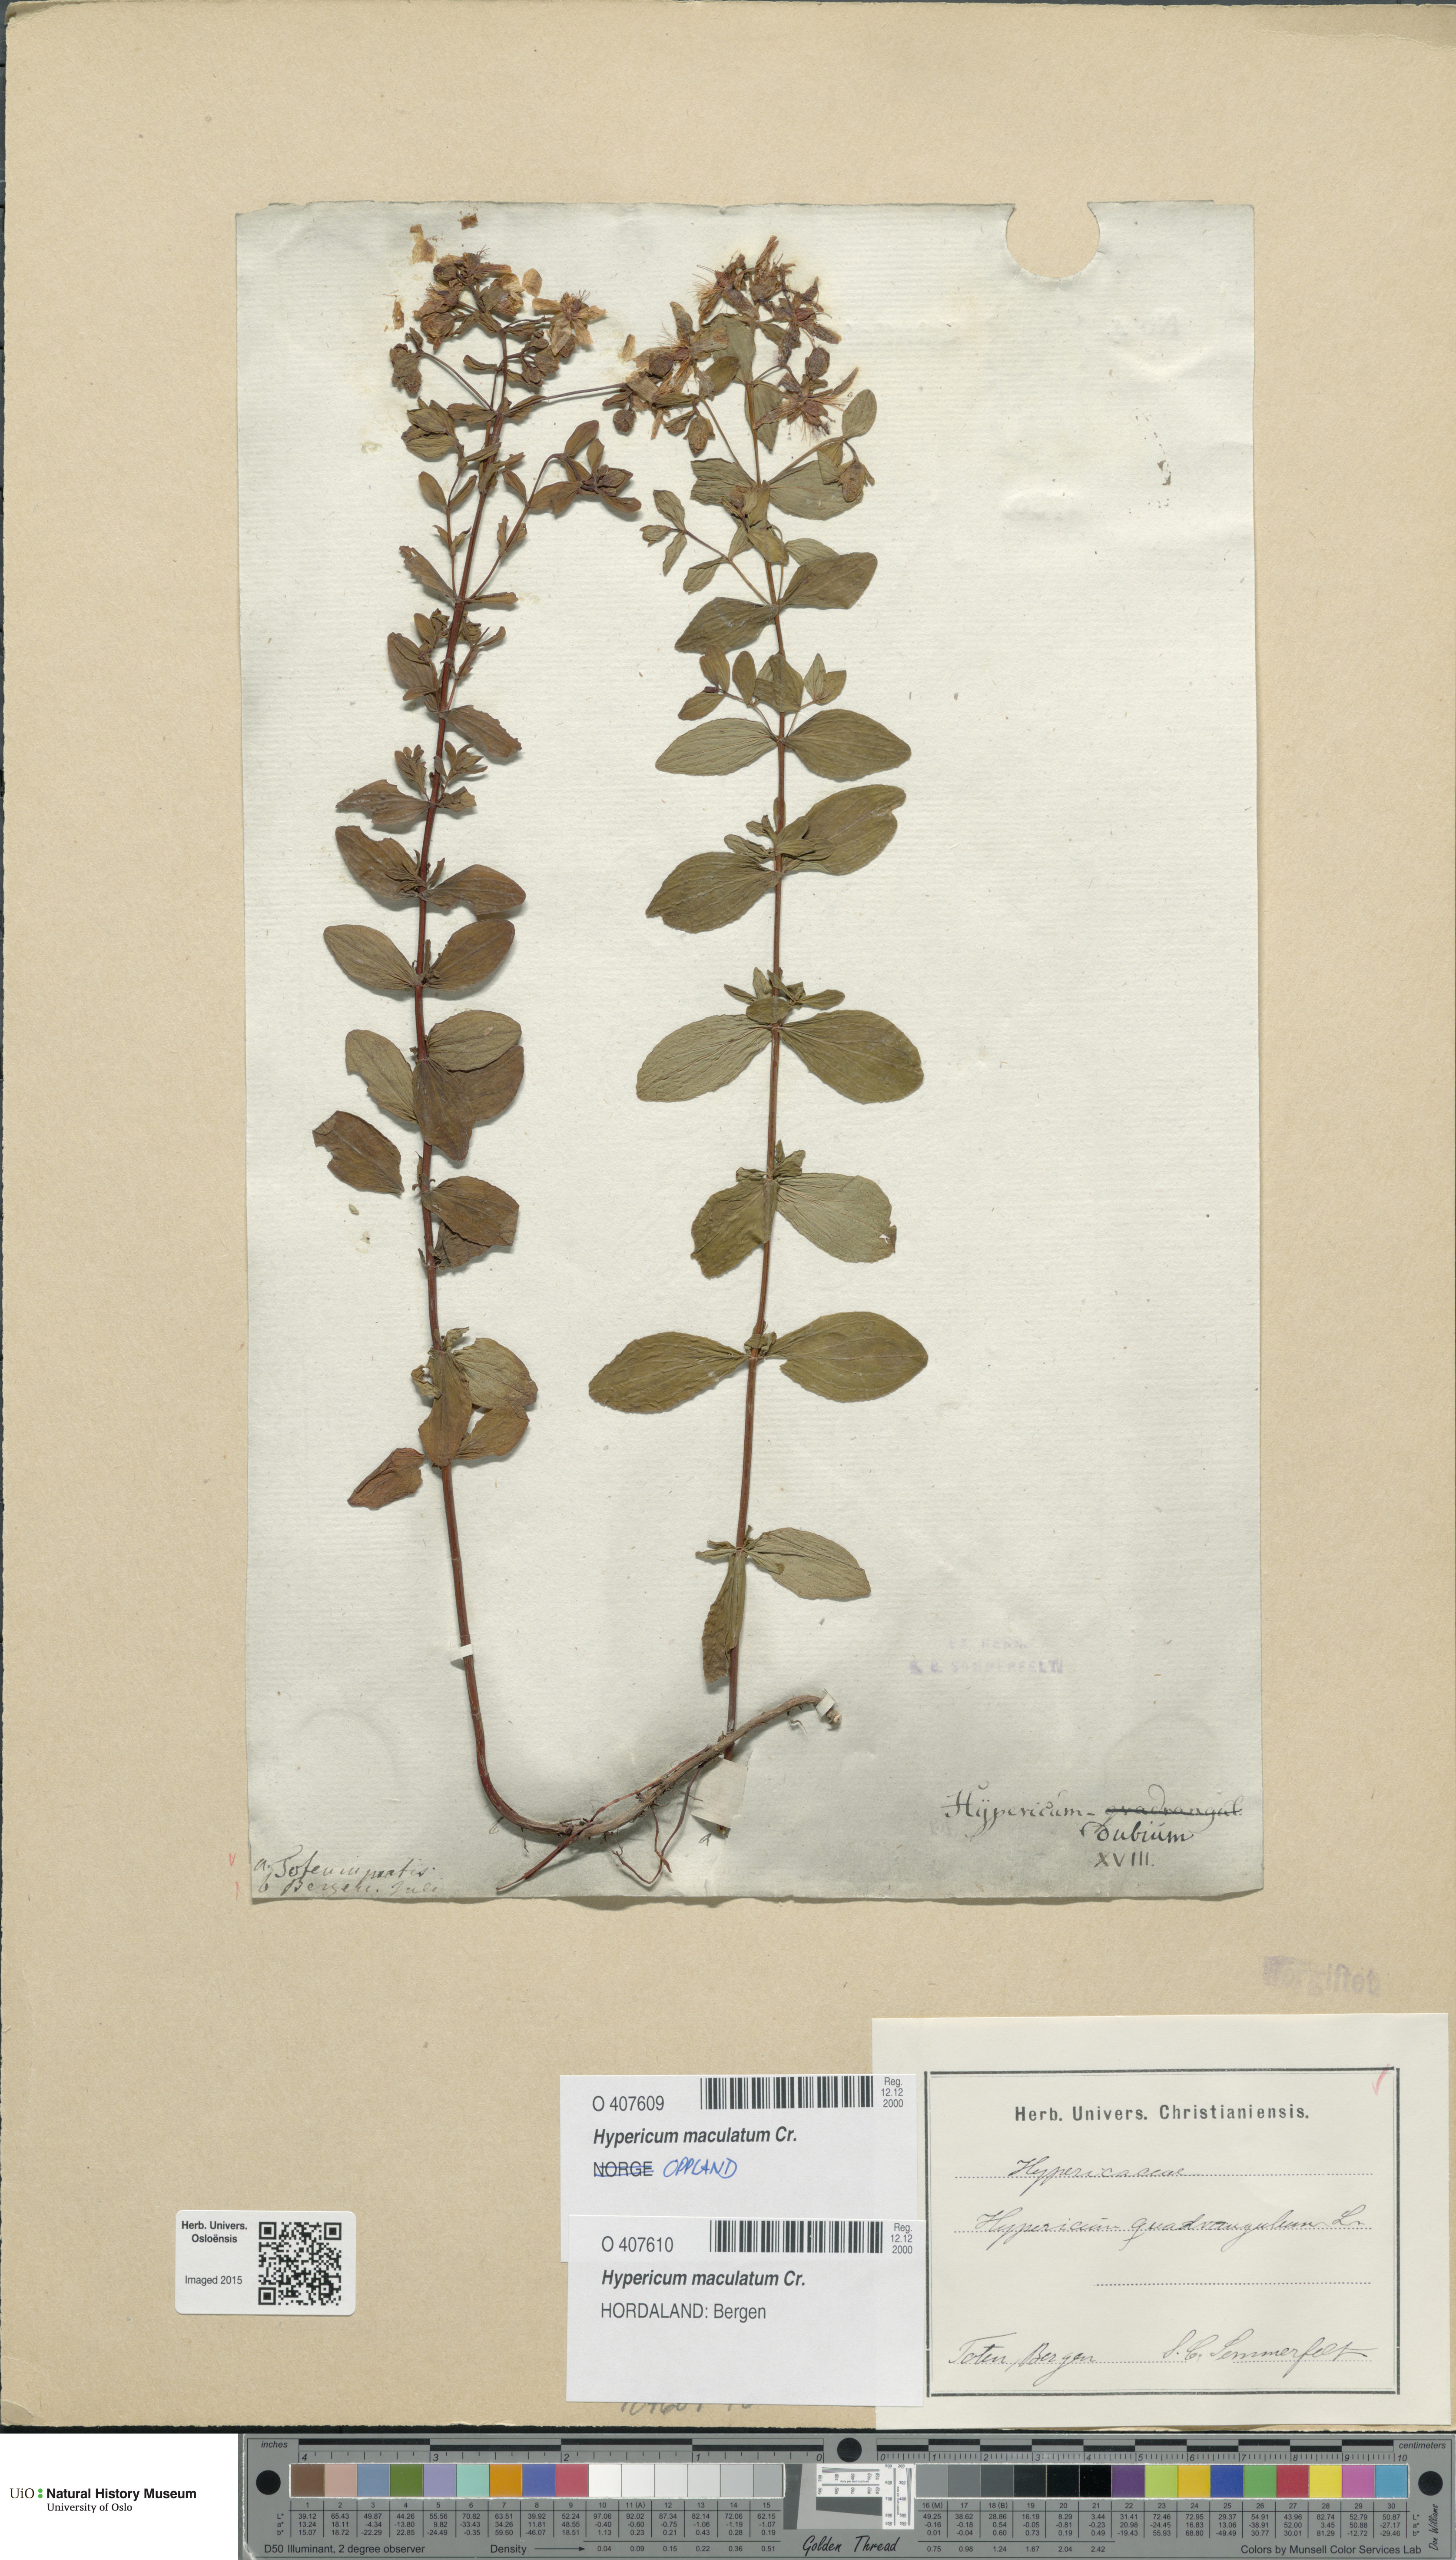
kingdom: Plantae
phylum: Tracheophyta
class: Magnoliopsida
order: Malpighiales
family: Hypericaceae
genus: Hypericum
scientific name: Hypericum maculatum
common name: Imperforate st. john's-wort
